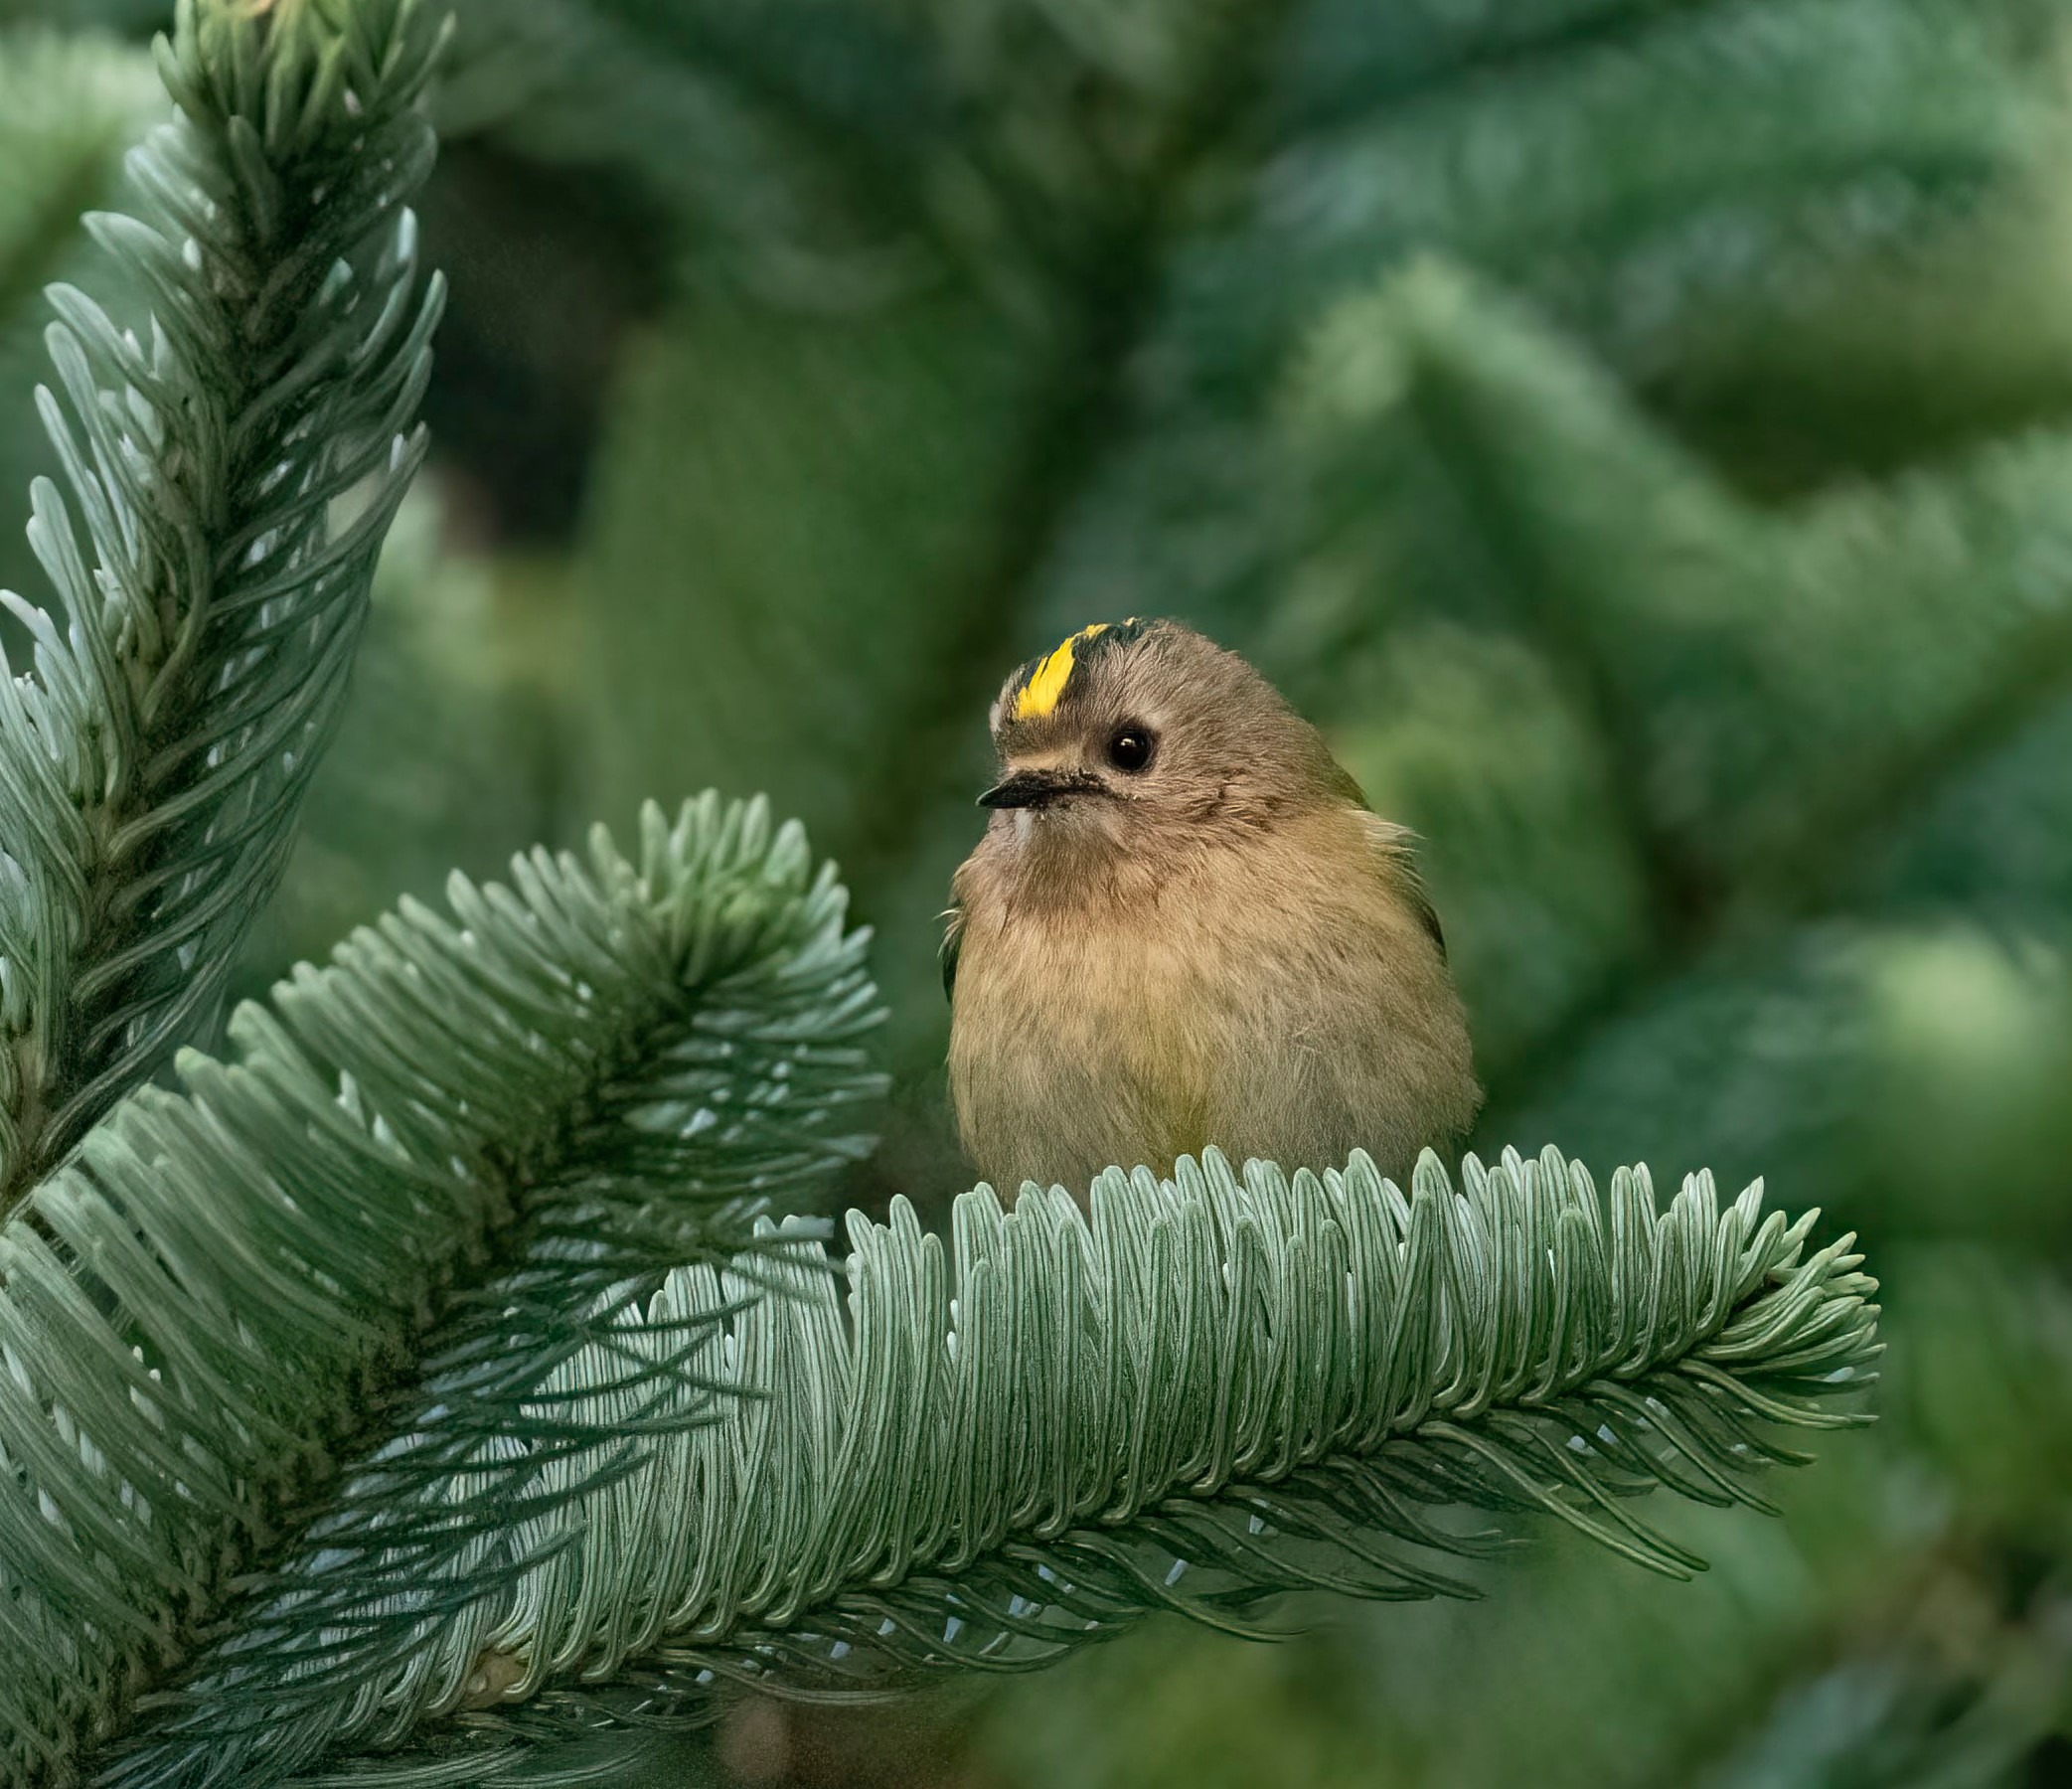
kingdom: Animalia
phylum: Chordata
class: Aves
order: Passeriformes
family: Regulidae
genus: Regulus
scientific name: Regulus regulus
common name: Fuglekonge
